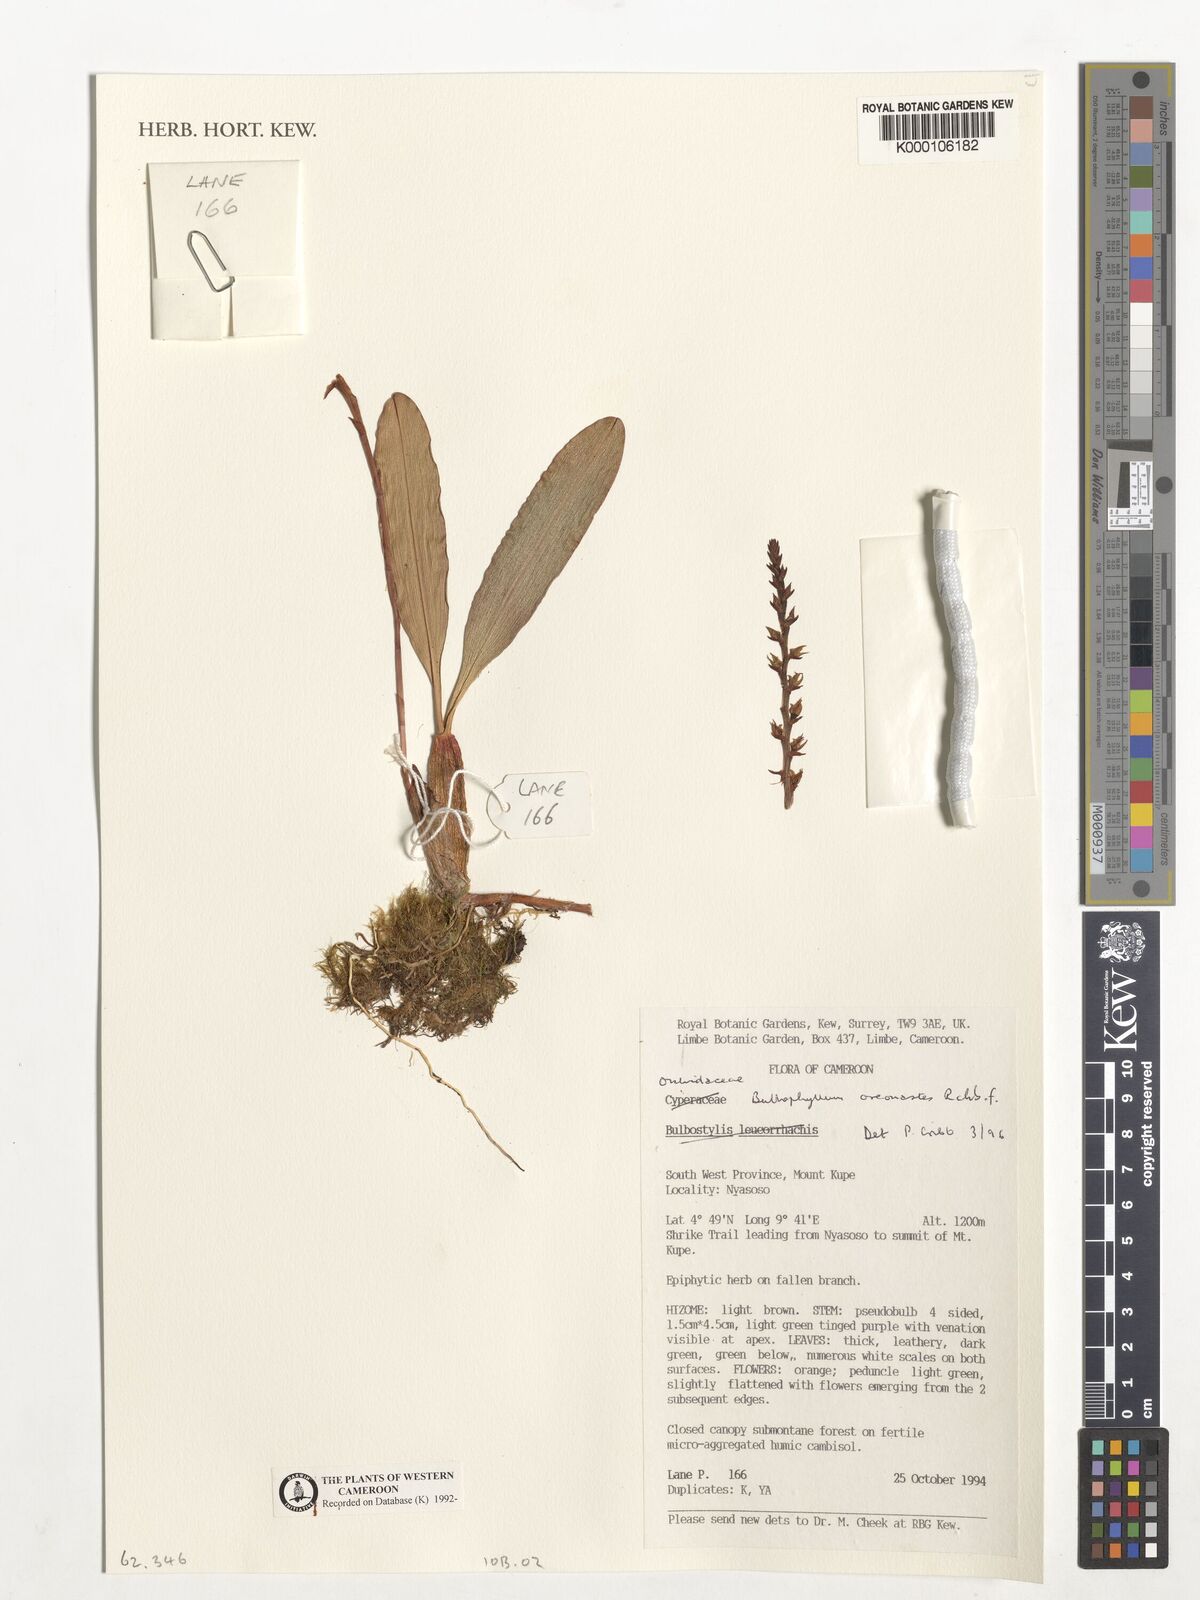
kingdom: Plantae
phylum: Tracheophyta
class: Liliopsida
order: Asparagales
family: Orchidaceae
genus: Bulbophyllum
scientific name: Bulbophyllum oreonastes
